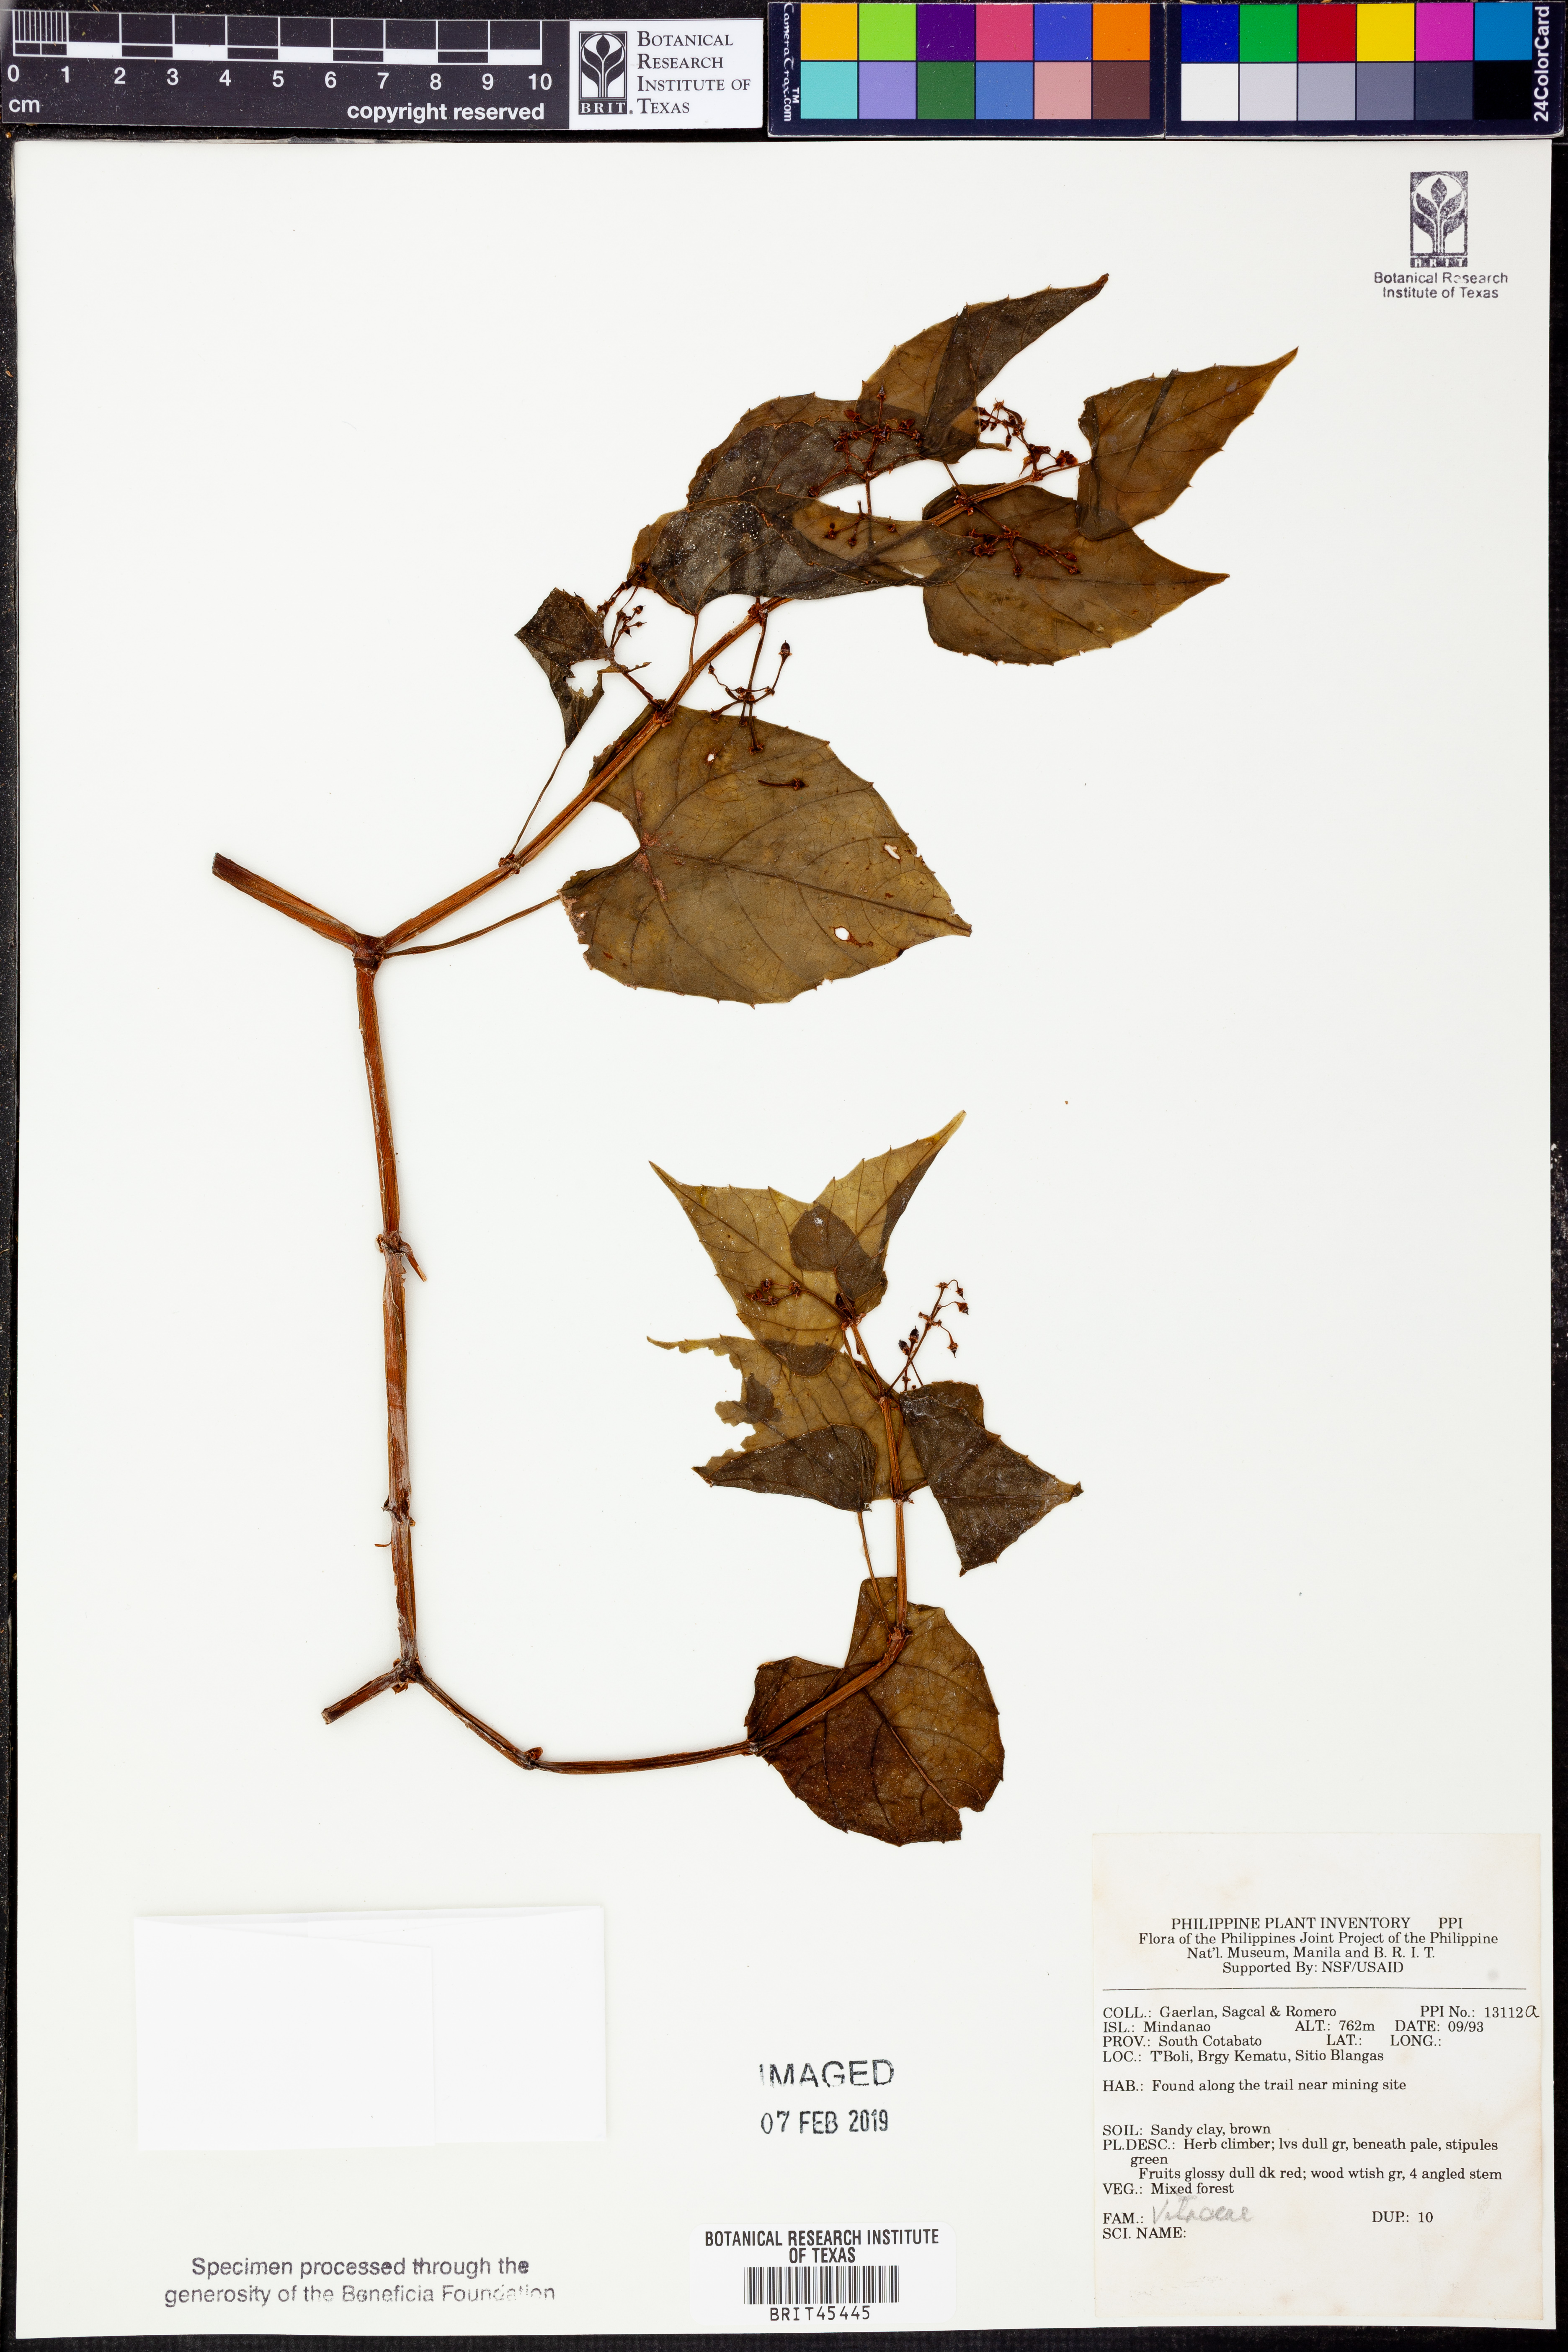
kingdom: Plantae
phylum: Tracheophyta
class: Magnoliopsida
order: Vitales
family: Vitaceae
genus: Vitis
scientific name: Vitis
